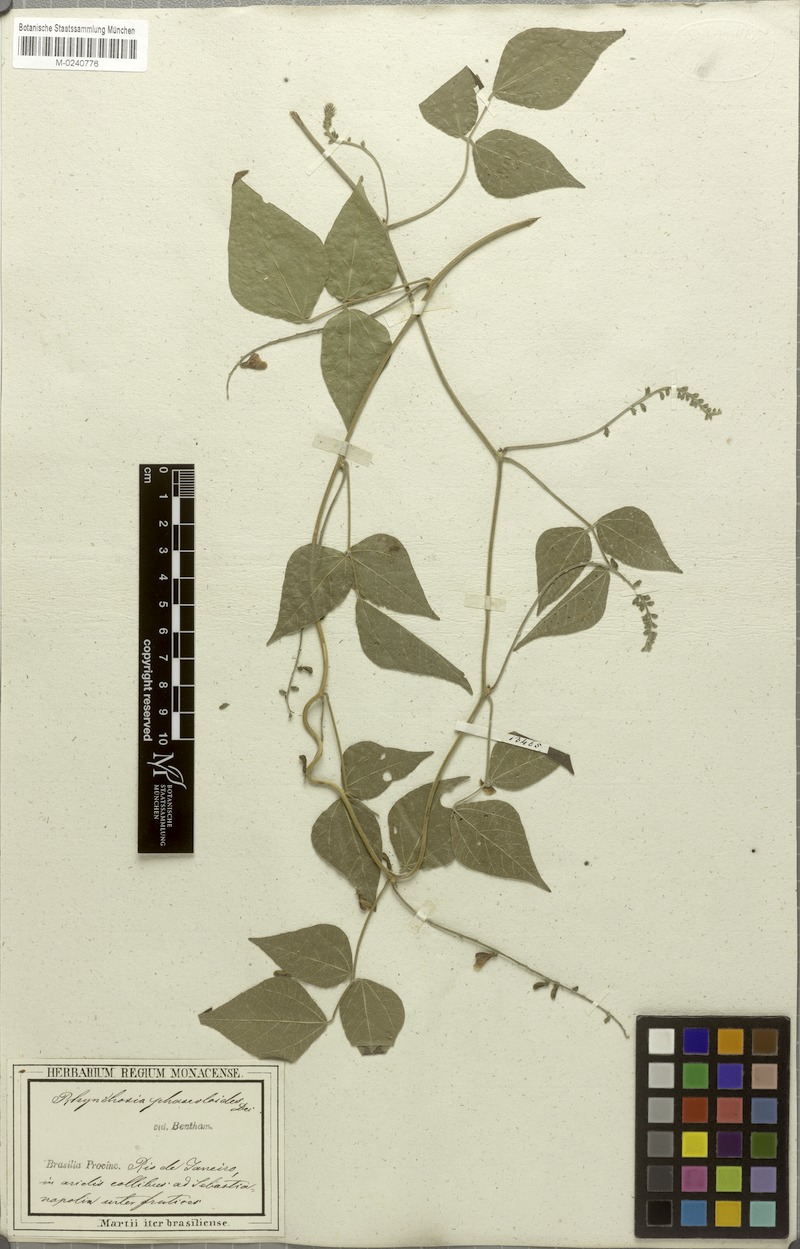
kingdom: Plantae
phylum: Tracheophyta
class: Magnoliopsida
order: Fabales
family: Fabaceae
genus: Rhynchosia
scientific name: Rhynchosia phaseoloides
